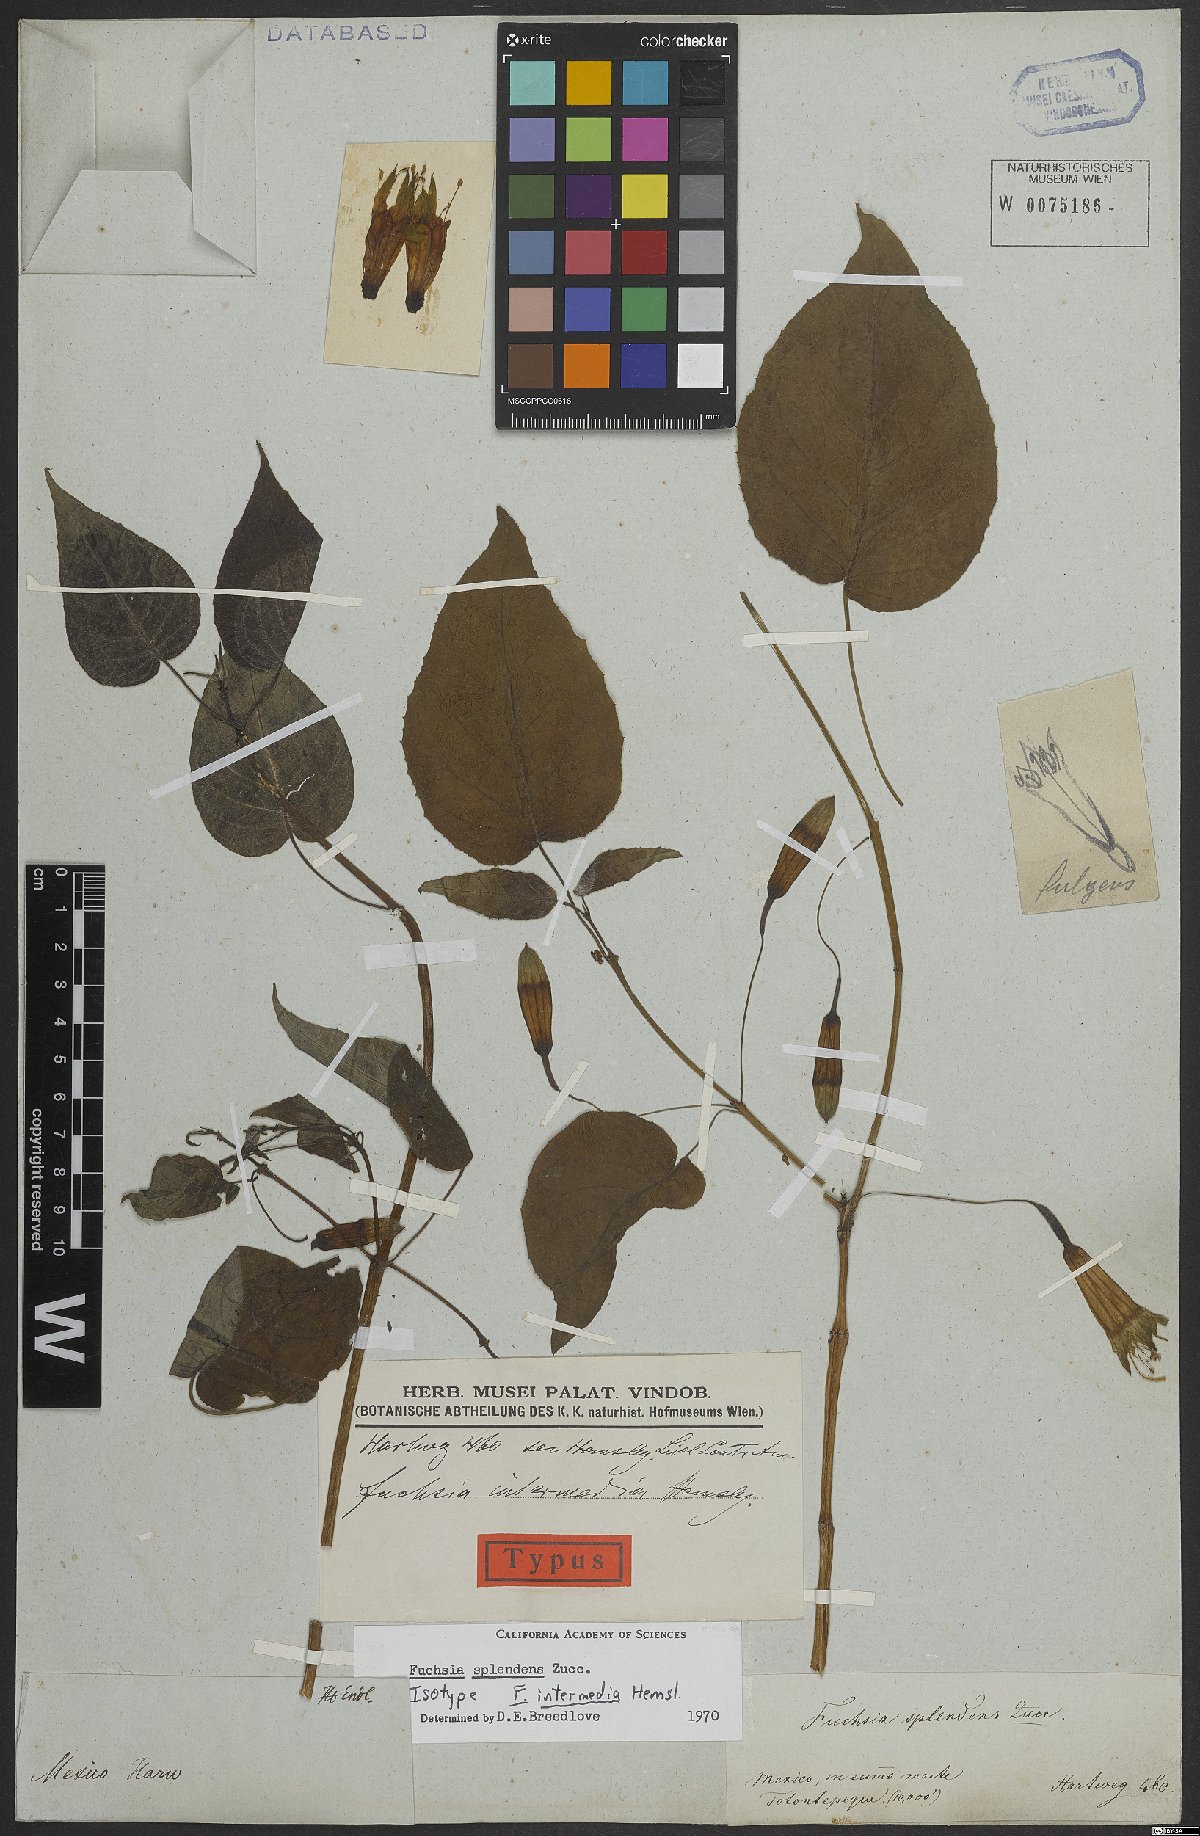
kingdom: Plantae
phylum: Tracheophyta
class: Magnoliopsida
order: Myrtales
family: Onagraceae
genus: Fuchsia
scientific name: Fuchsia splendens
